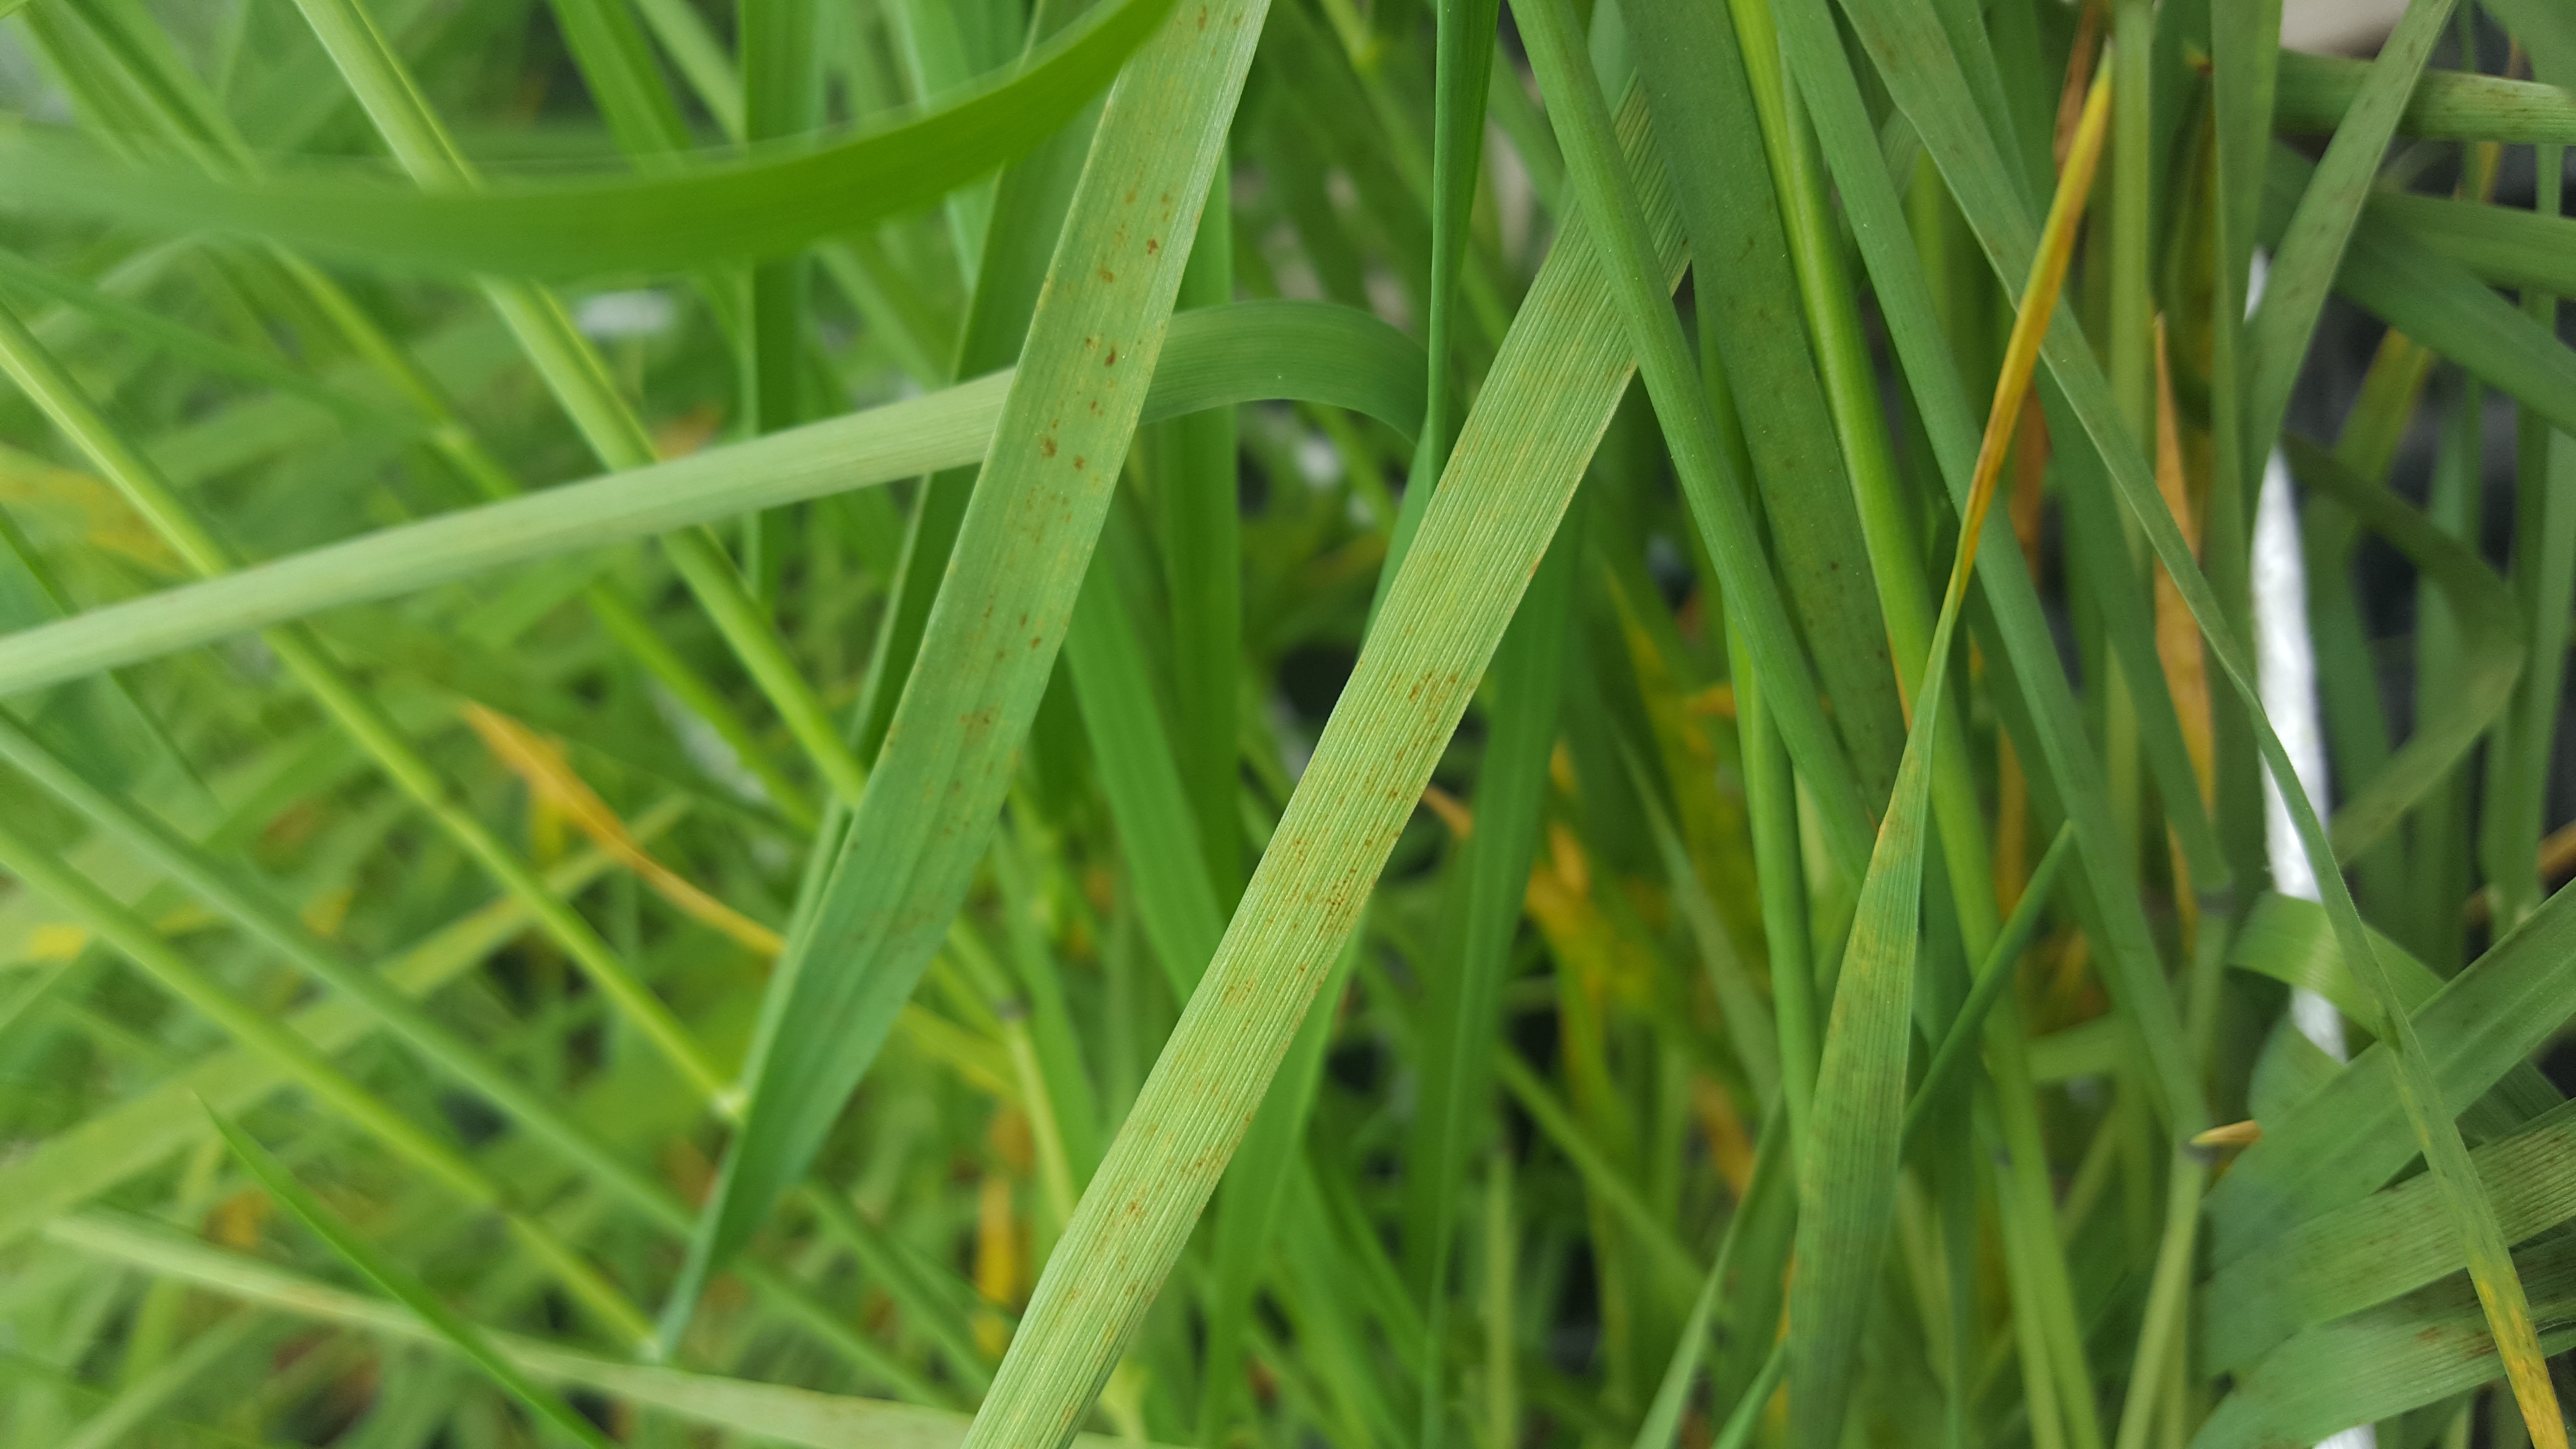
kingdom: Plantae
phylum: Tracheophyta
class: Liliopsida
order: Poales
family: Poaceae
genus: Hordeum
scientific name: Hordeum muticum
